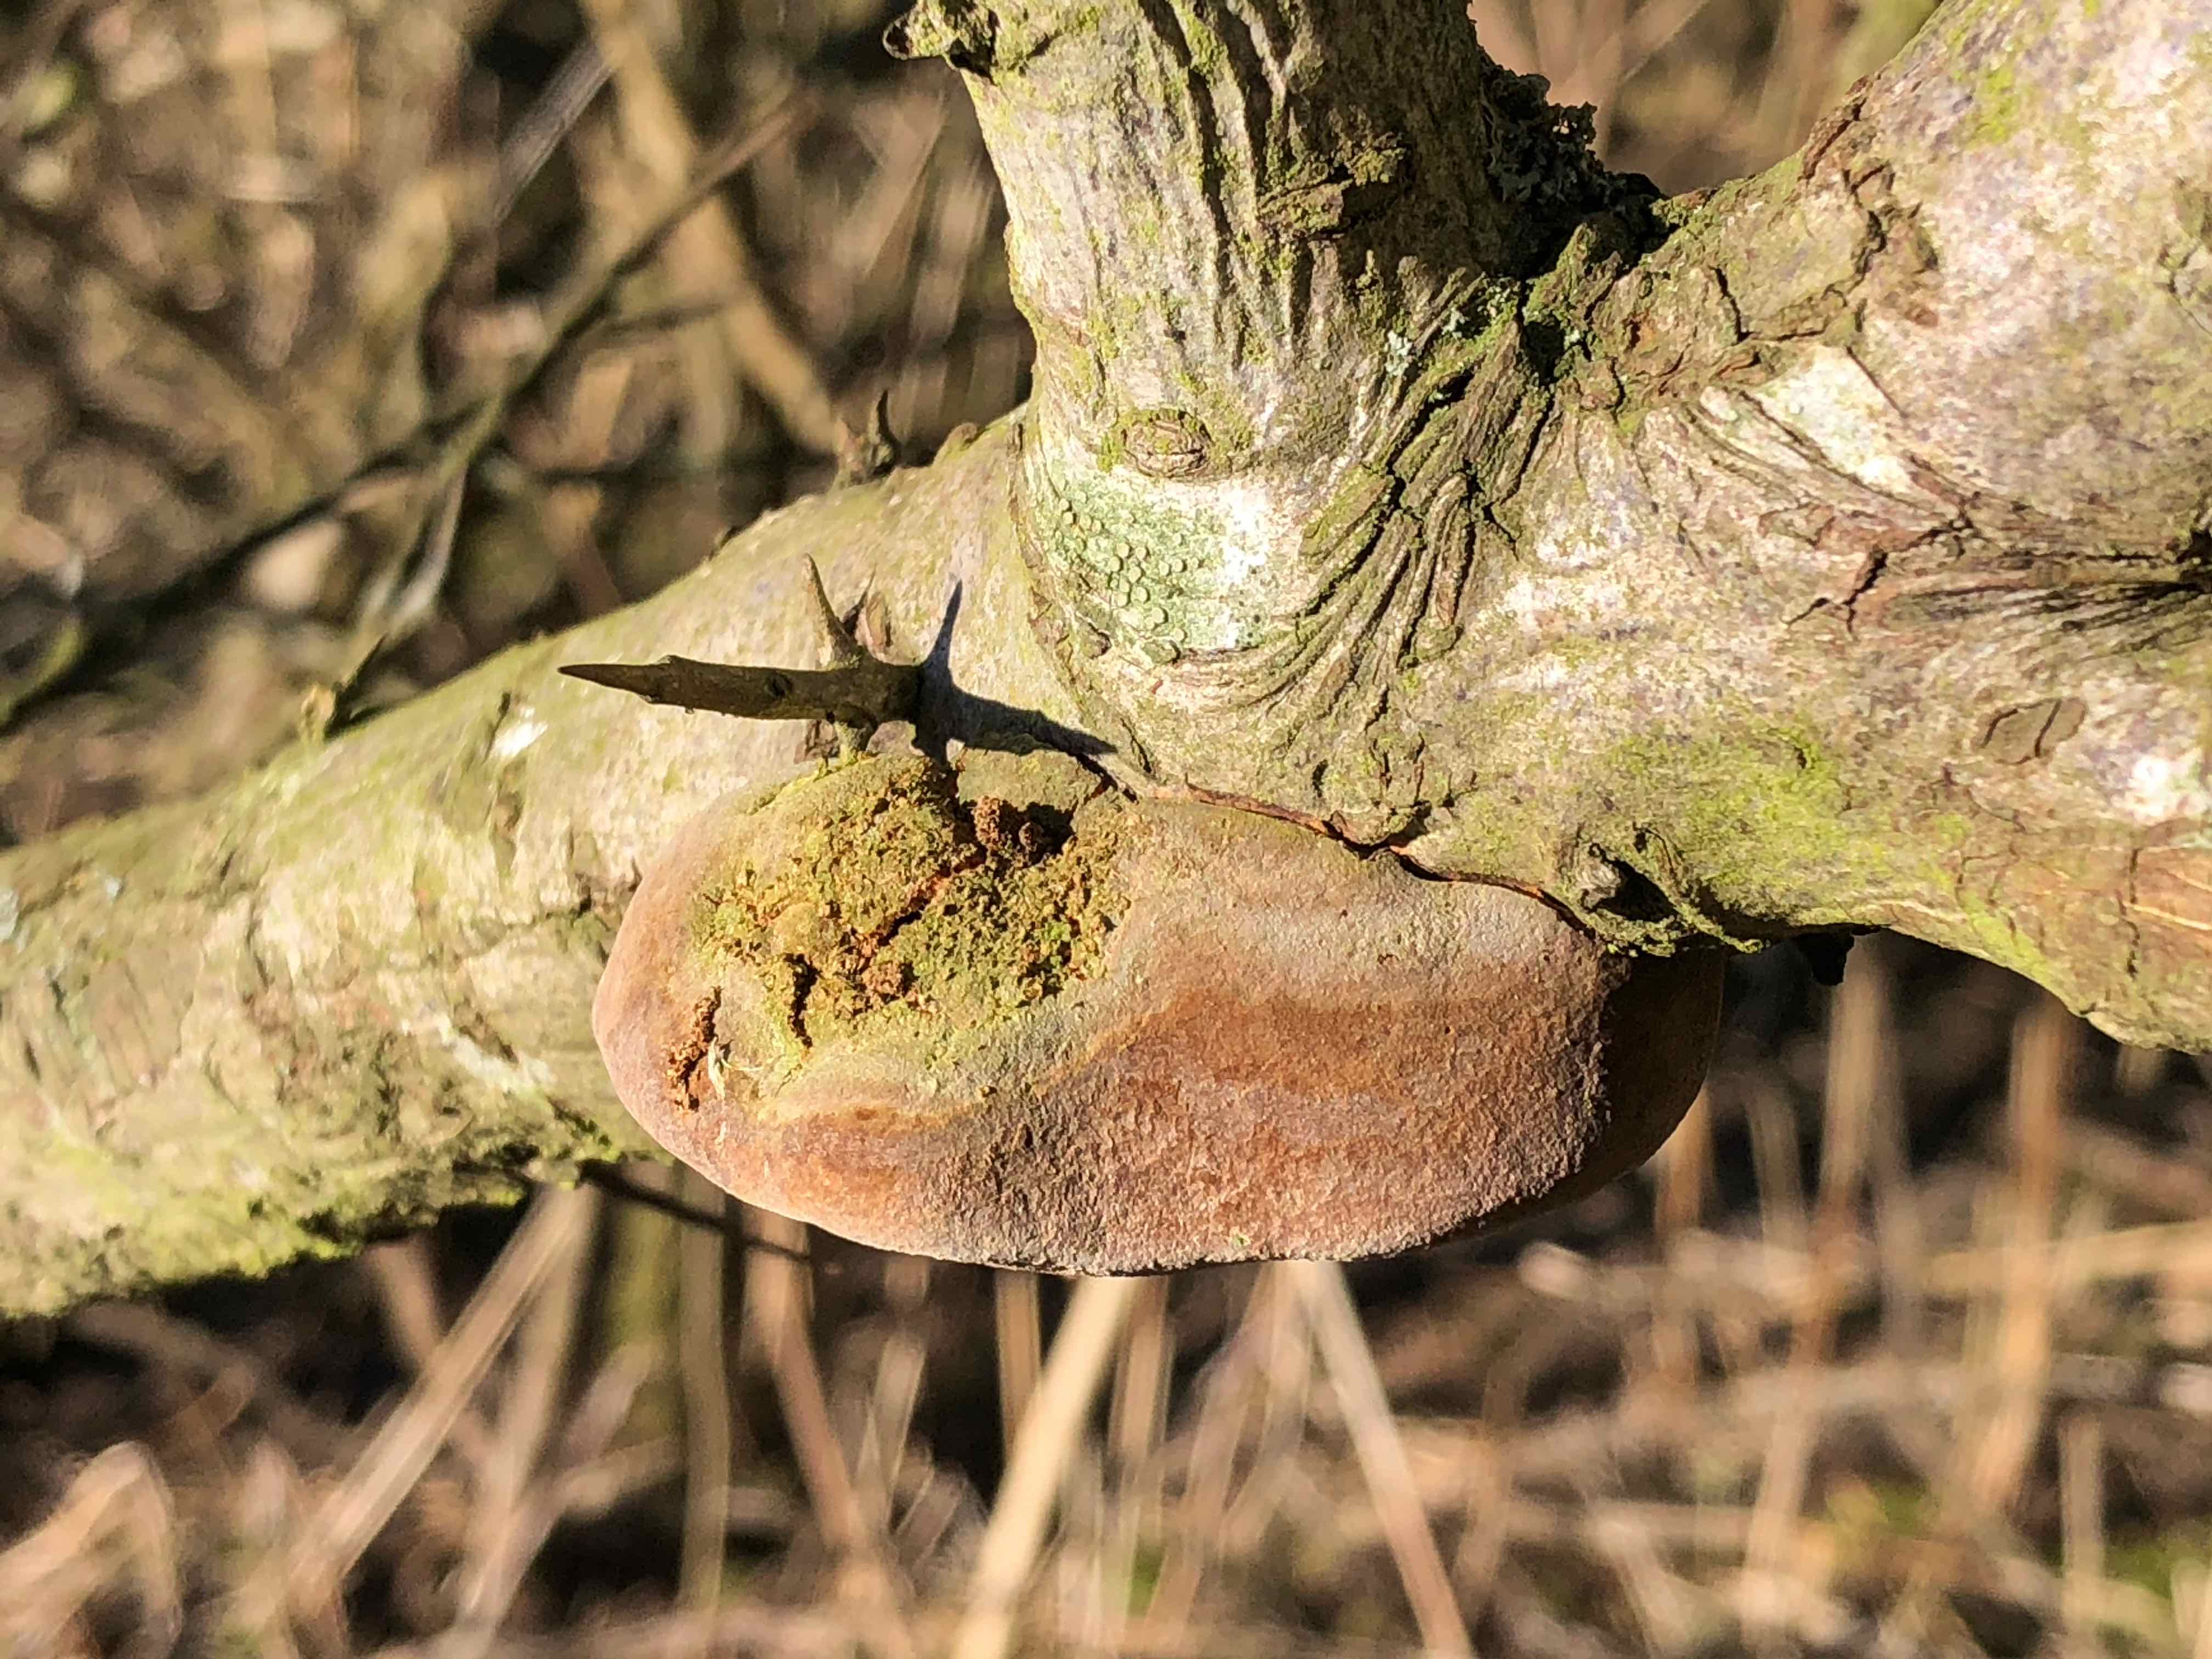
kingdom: Fungi
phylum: Basidiomycota
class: Agaricomycetes
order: Hymenochaetales
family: Hymenochaetaceae
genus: Fomitiporia
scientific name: Fomitiporia hippophaeicola
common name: havtorn-ildporesvamp
